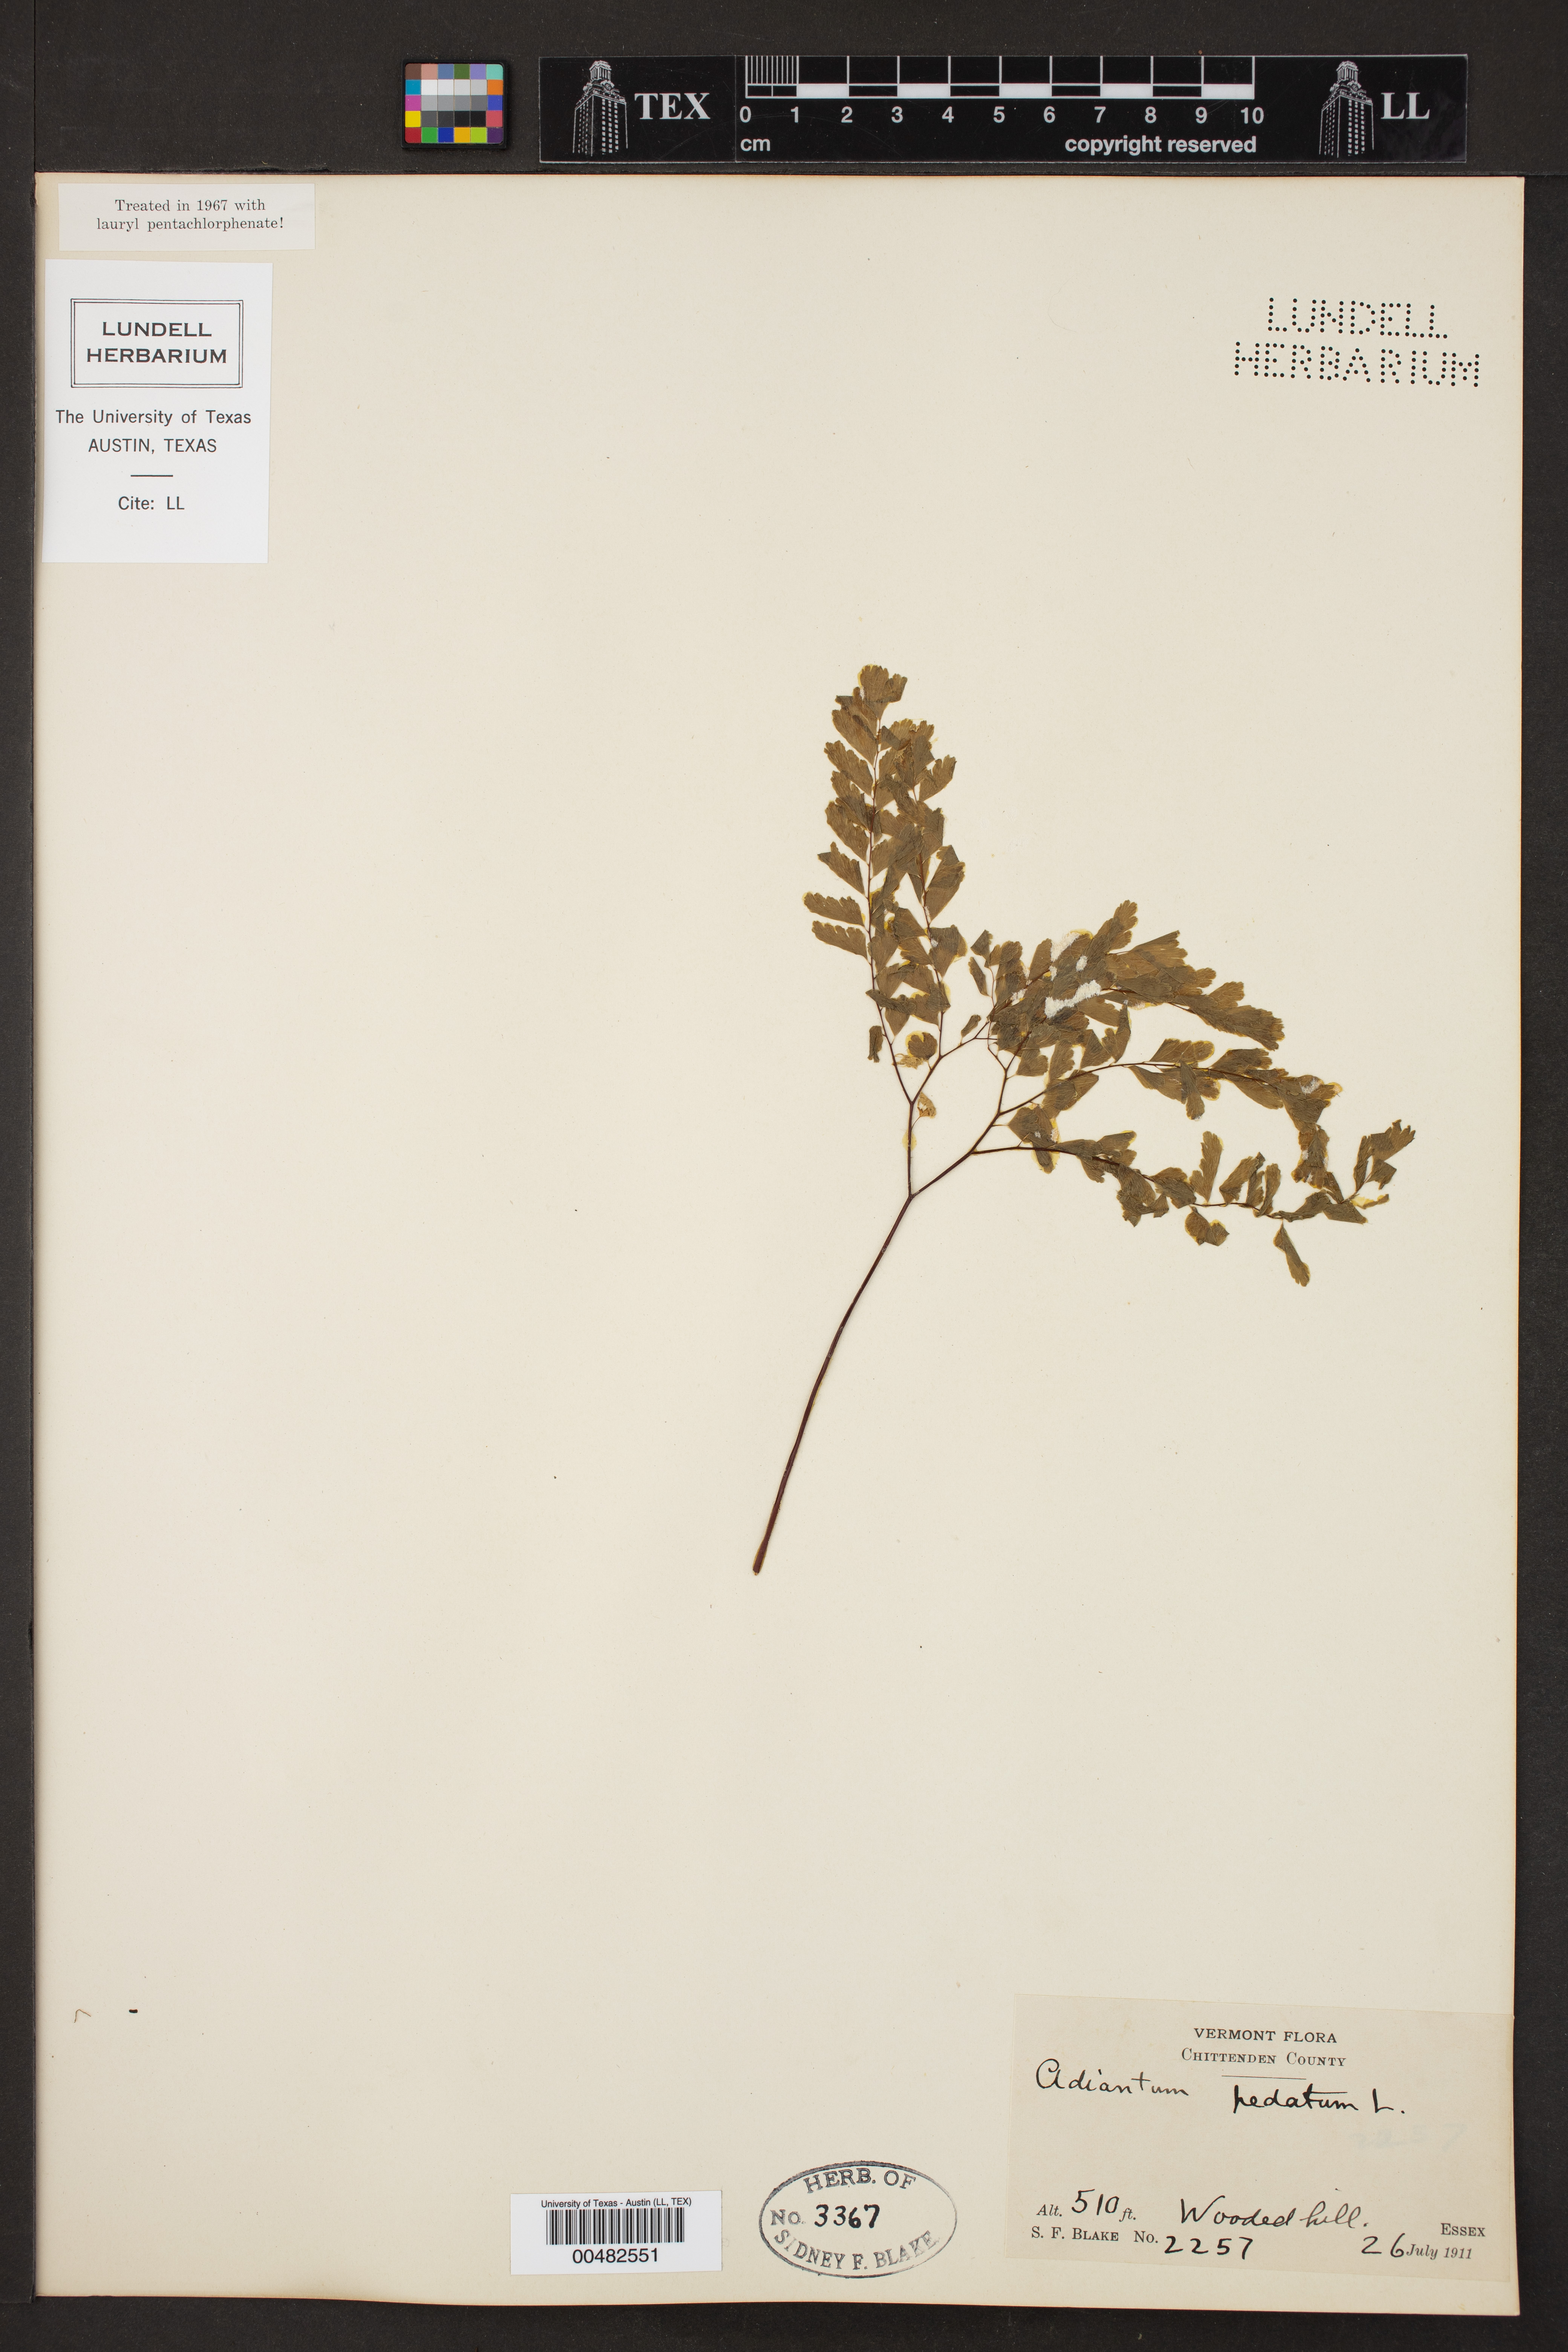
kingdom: Plantae
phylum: Tracheophyta
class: Polypodiopsida
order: Polypodiales
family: Pteridaceae
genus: Adiantum
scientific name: Adiantum pedatum
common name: Five-finger fern
